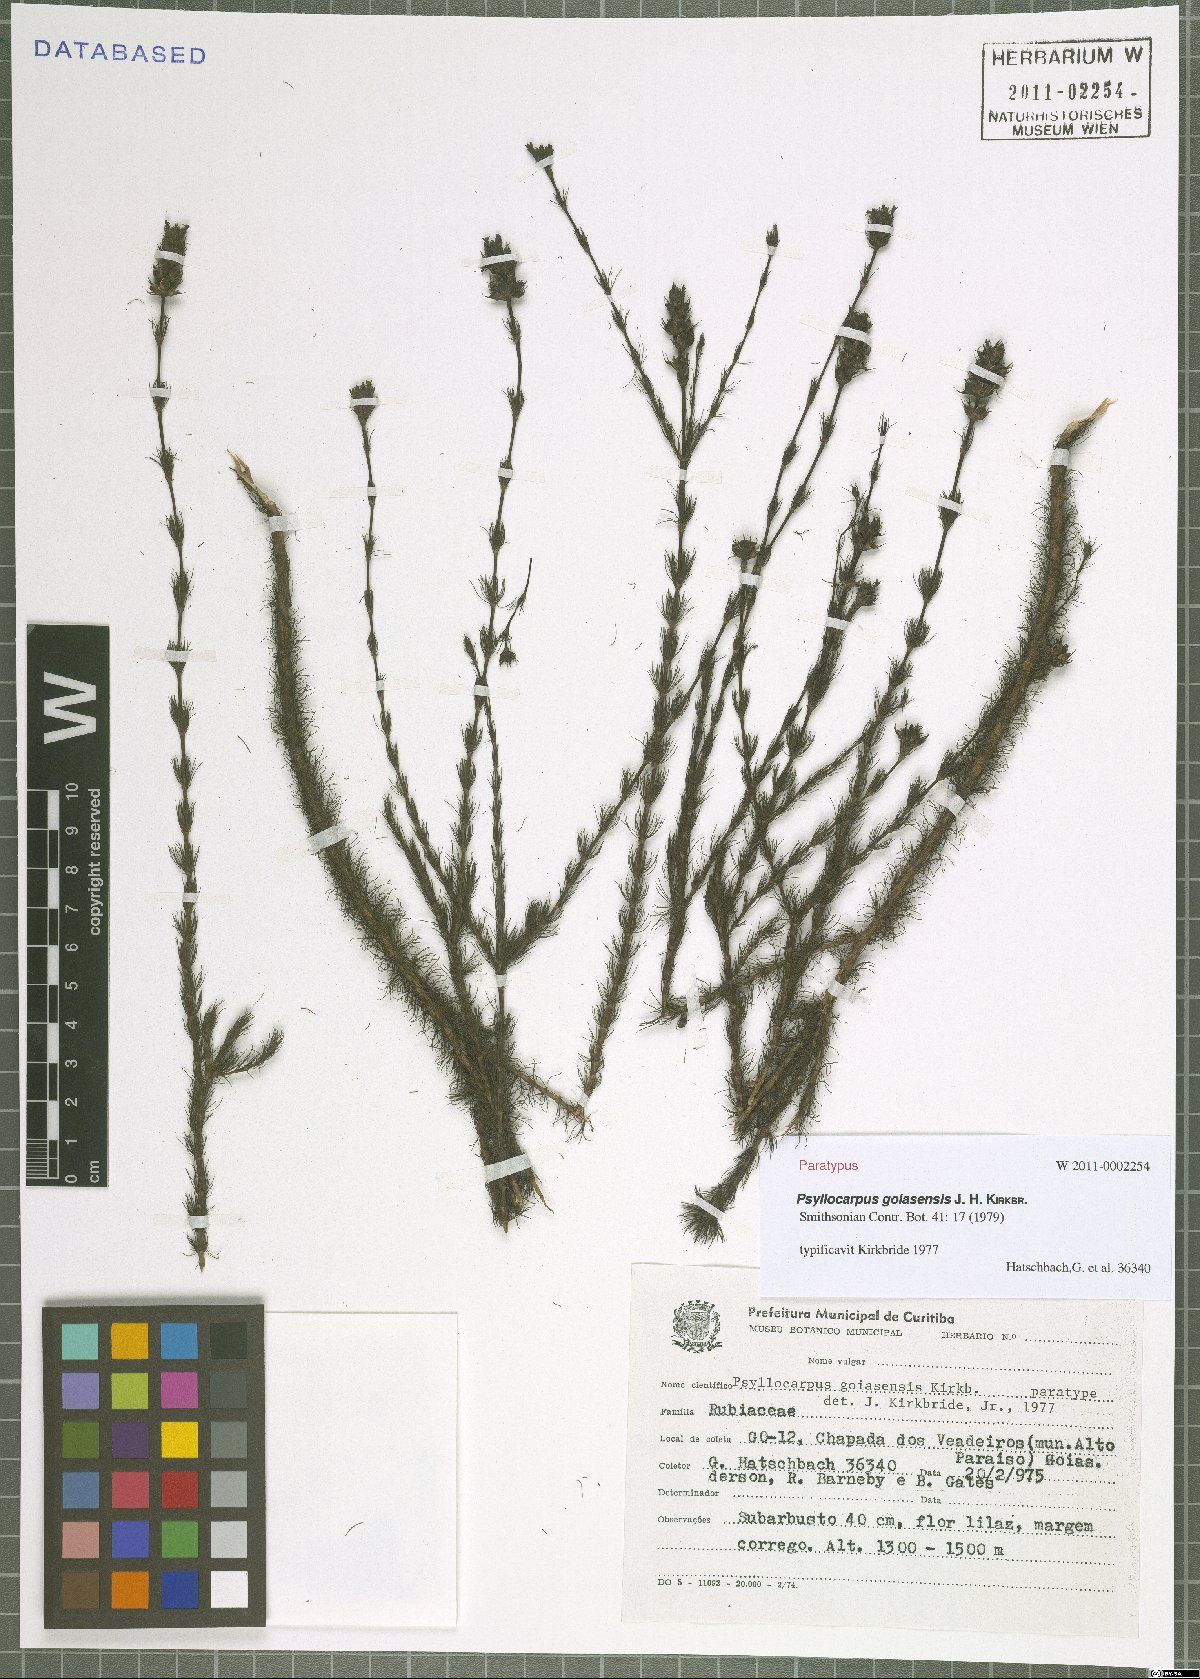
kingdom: Plantae
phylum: Tracheophyta
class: Magnoliopsida
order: Gentianales
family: Rubiaceae
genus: Psyllocarpus
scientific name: Psyllocarpus goiasensis
